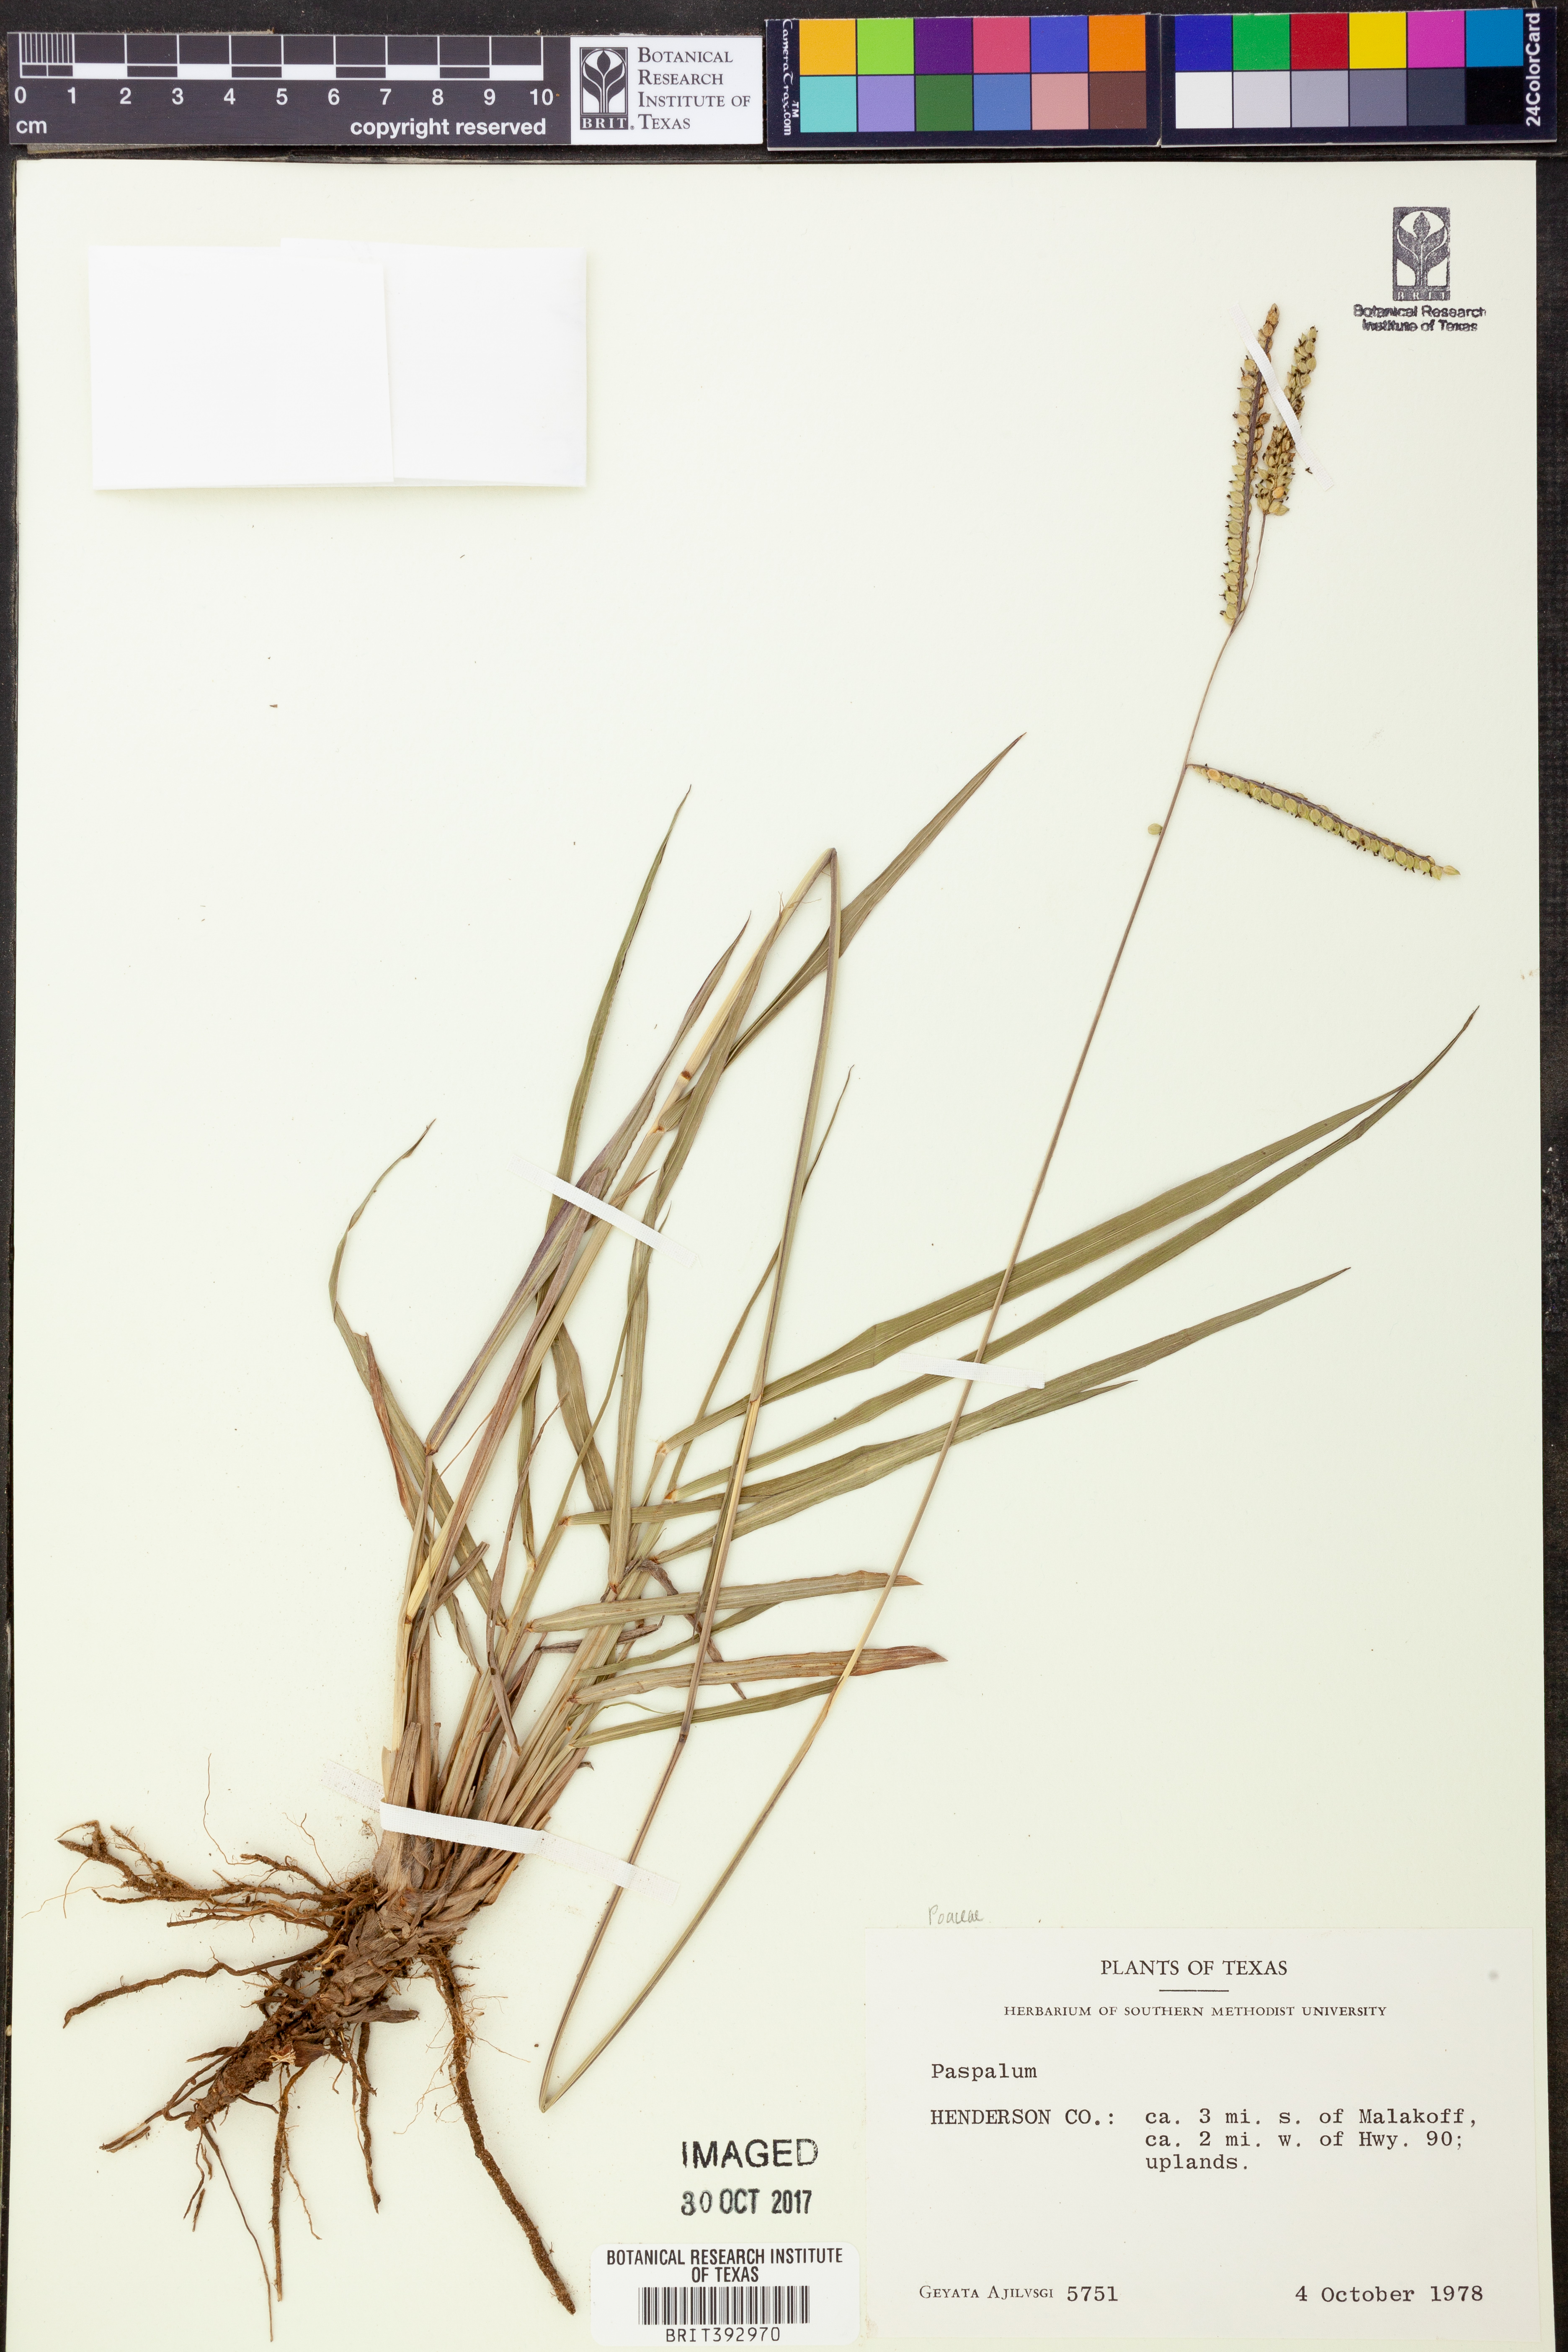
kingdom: Plantae
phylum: Tracheophyta
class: Liliopsida
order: Poales
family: Poaceae
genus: Paspalum
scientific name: Paspalum
